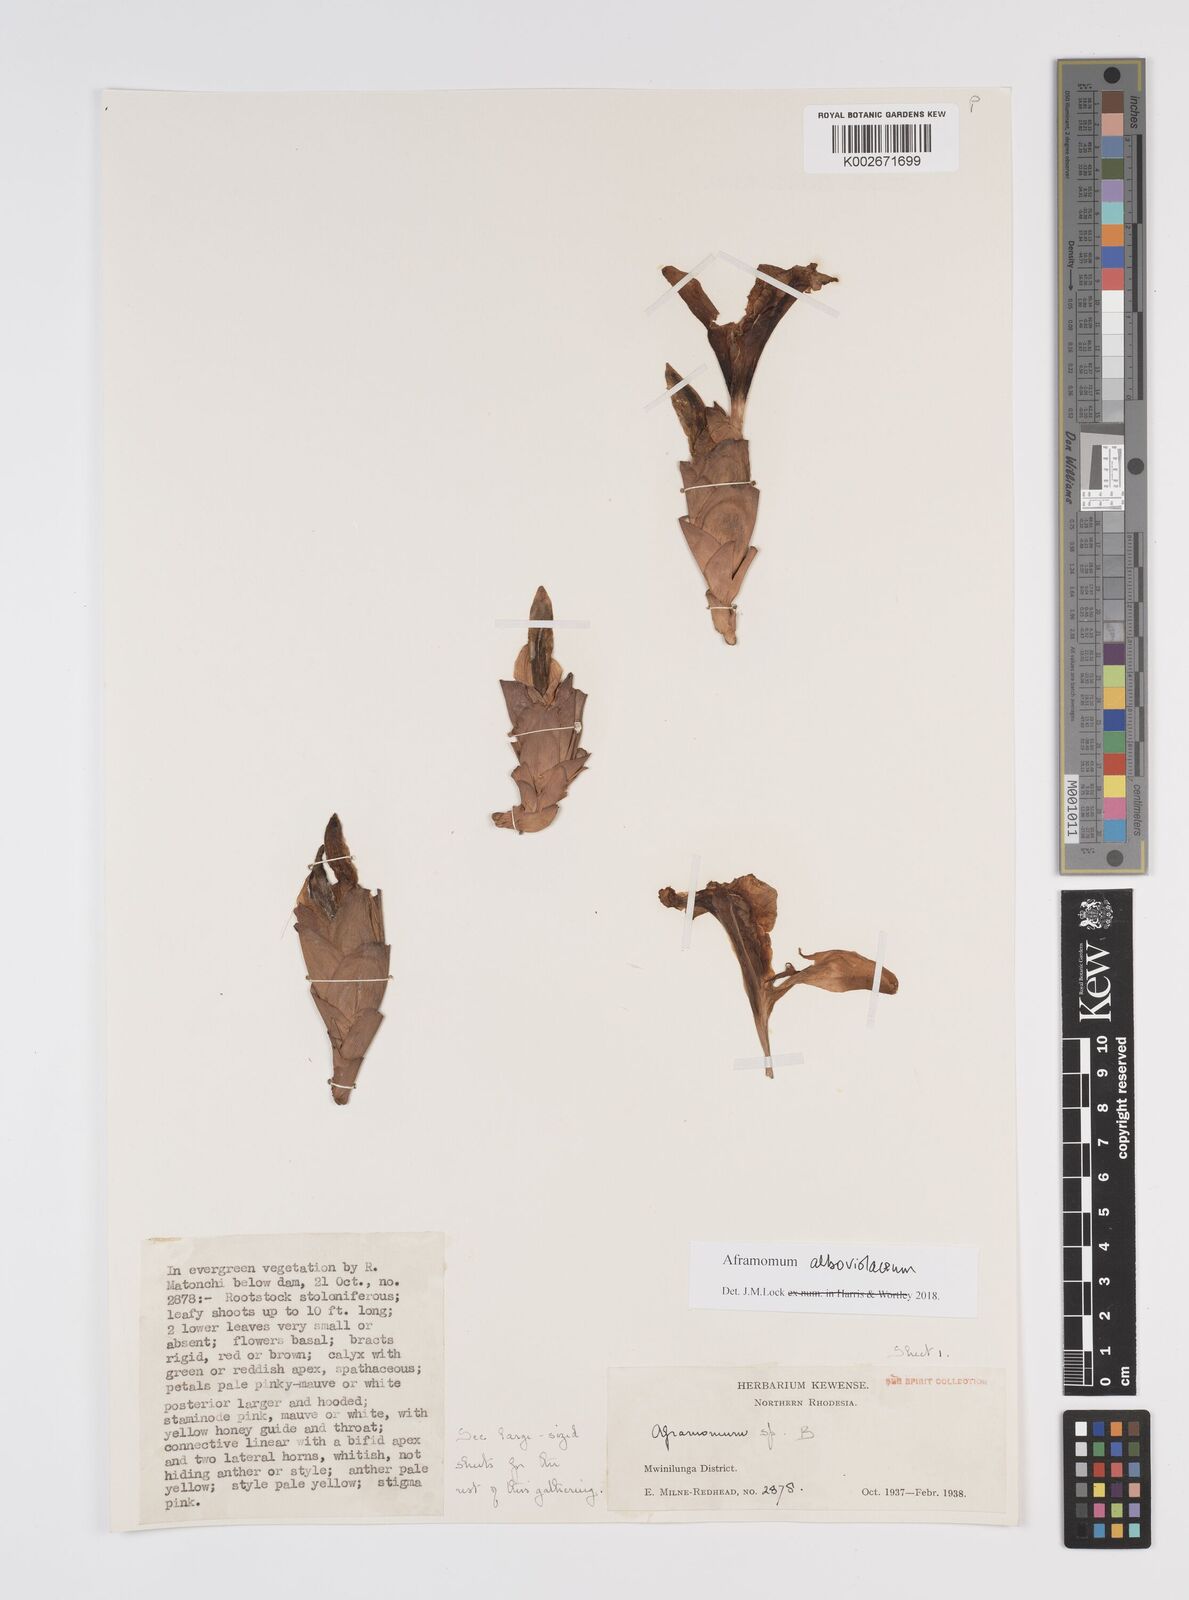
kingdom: Plantae
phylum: Tracheophyta
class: Liliopsida
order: Zingiberales
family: Zingiberaceae
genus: Aframomum
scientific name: Aframomum alboviolaceum
